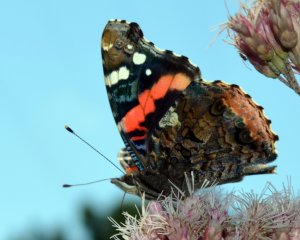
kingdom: Animalia
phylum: Arthropoda
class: Insecta
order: Lepidoptera
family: Nymphalidae
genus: Vanessa
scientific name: Vanessa atalanta
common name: Red Admiral
